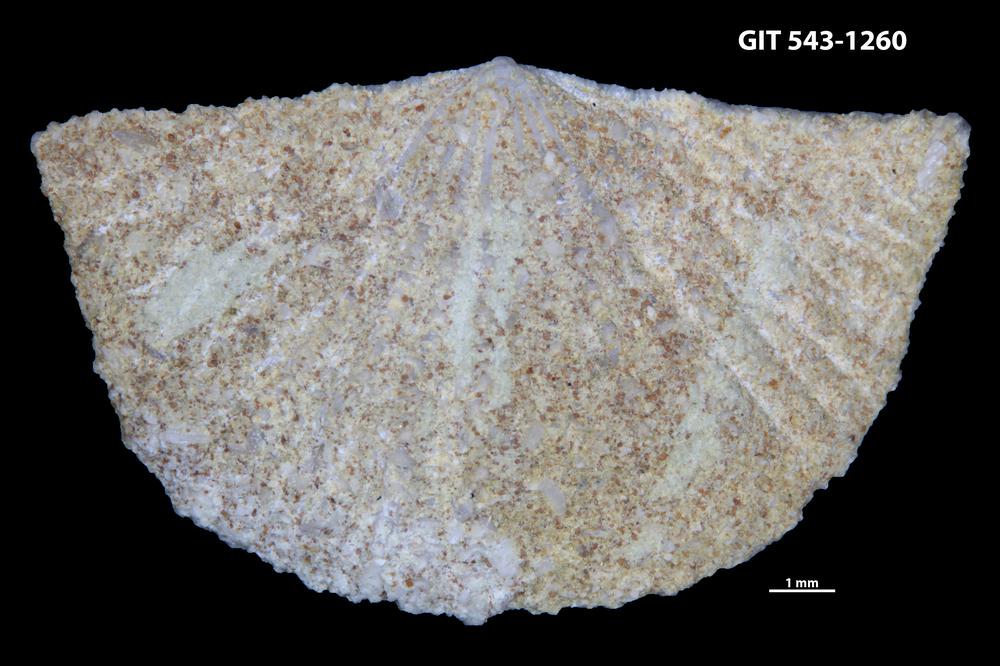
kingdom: Animalia
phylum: Brachiopoda
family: Kullervoidae
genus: Kullervo
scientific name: Kullervo lacunata
